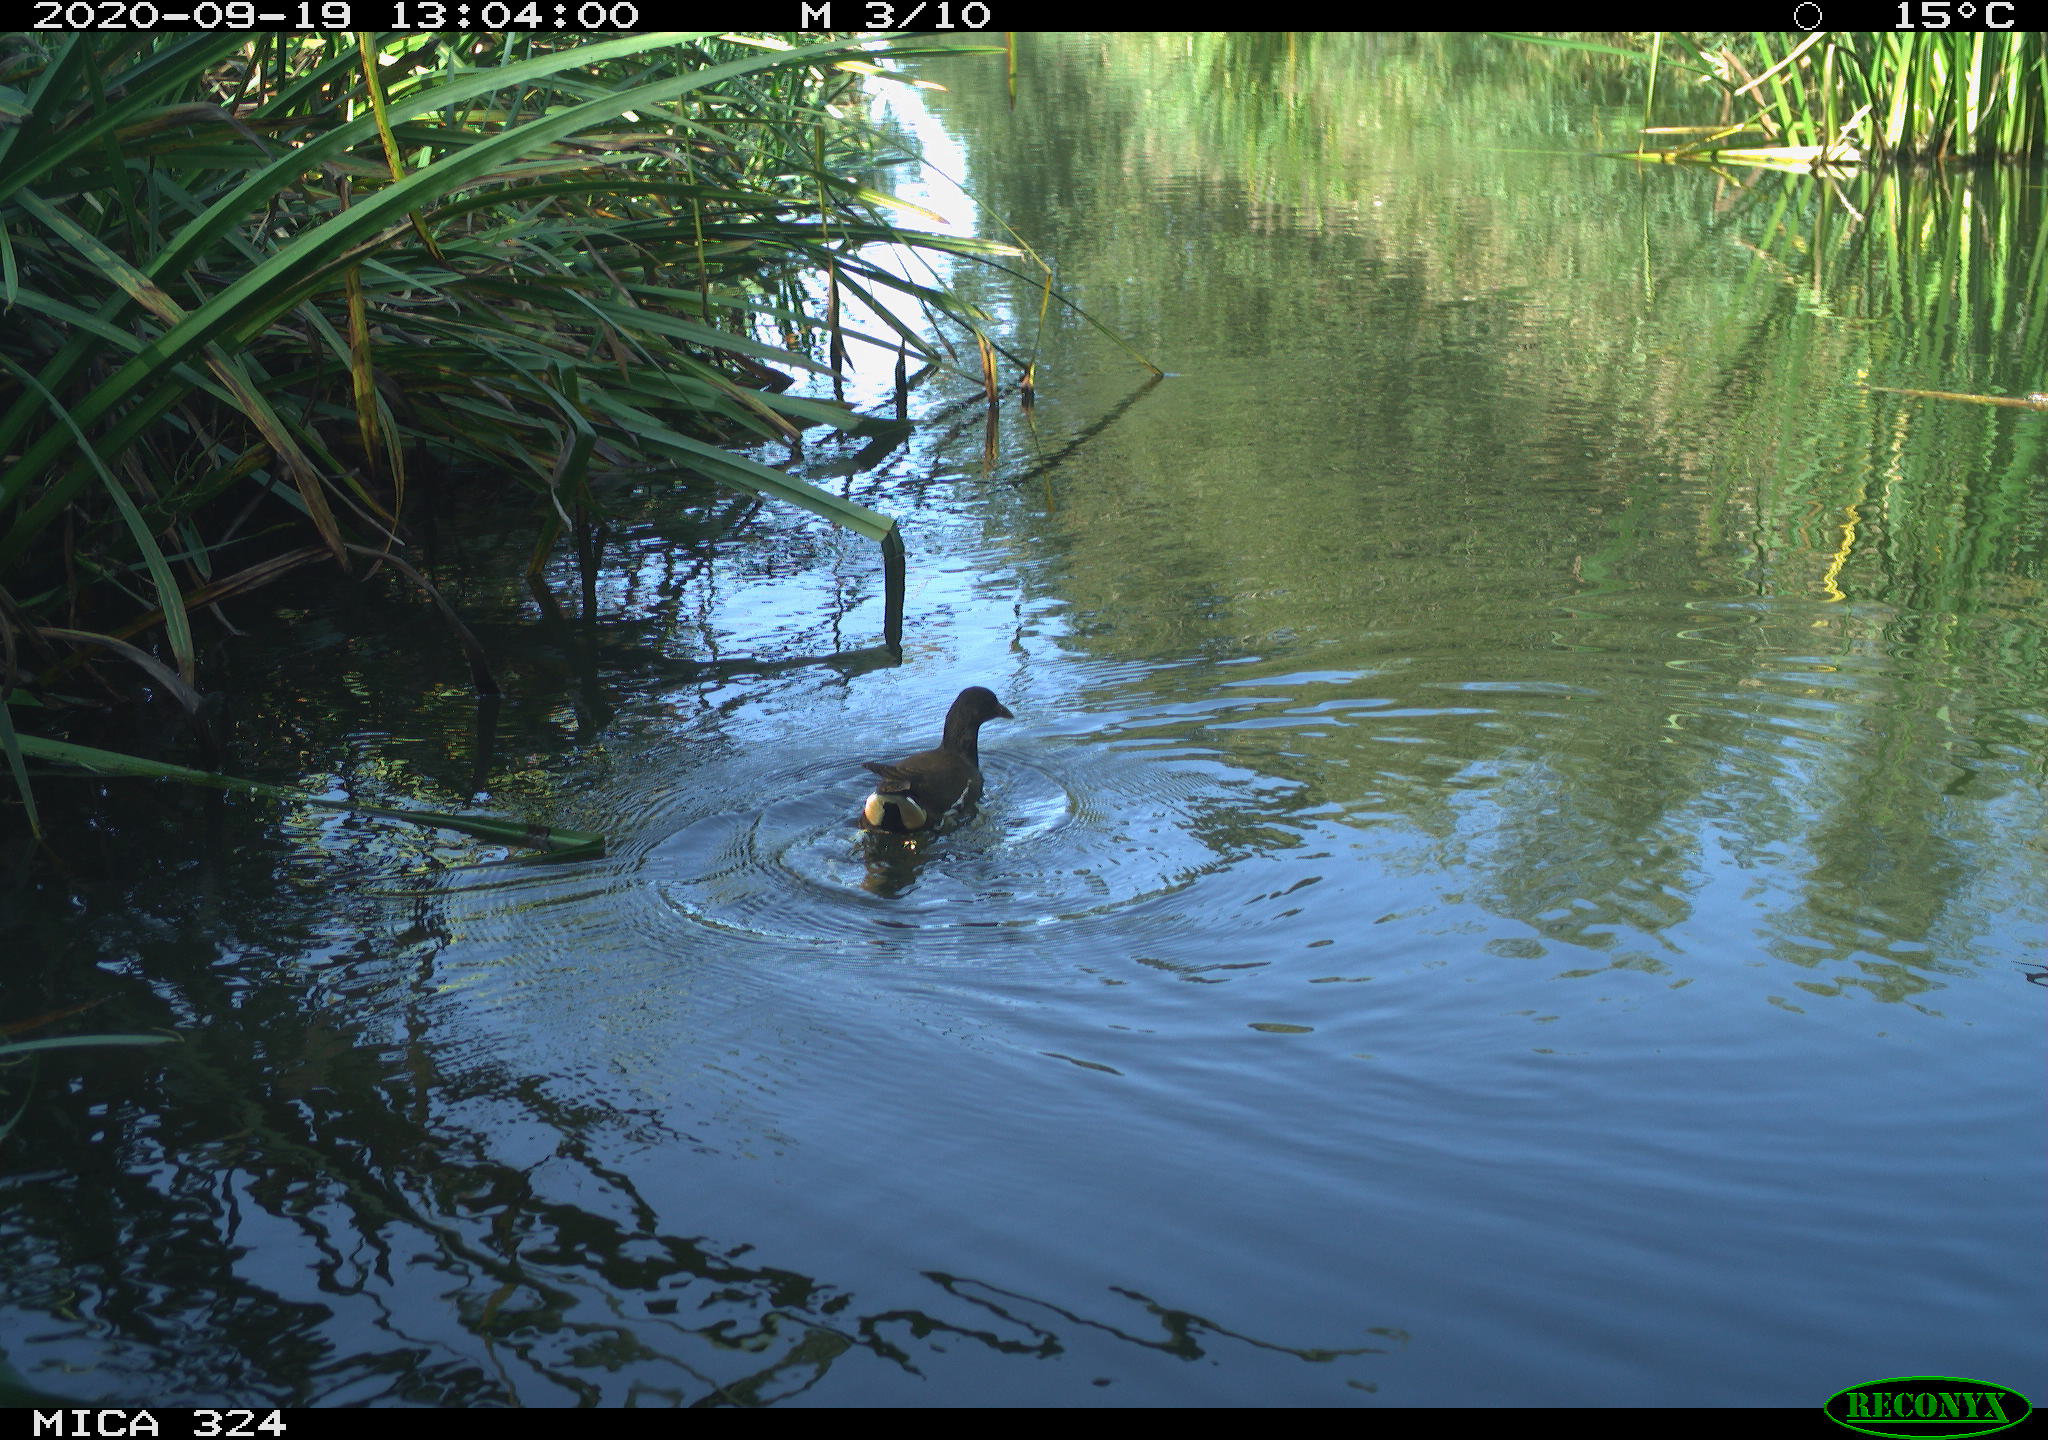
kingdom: Animalia
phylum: Chordata
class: Aves
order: Gruiformes
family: Rallidae
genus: Gallinula
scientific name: Gallinula chloropus
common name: Common moorhen
